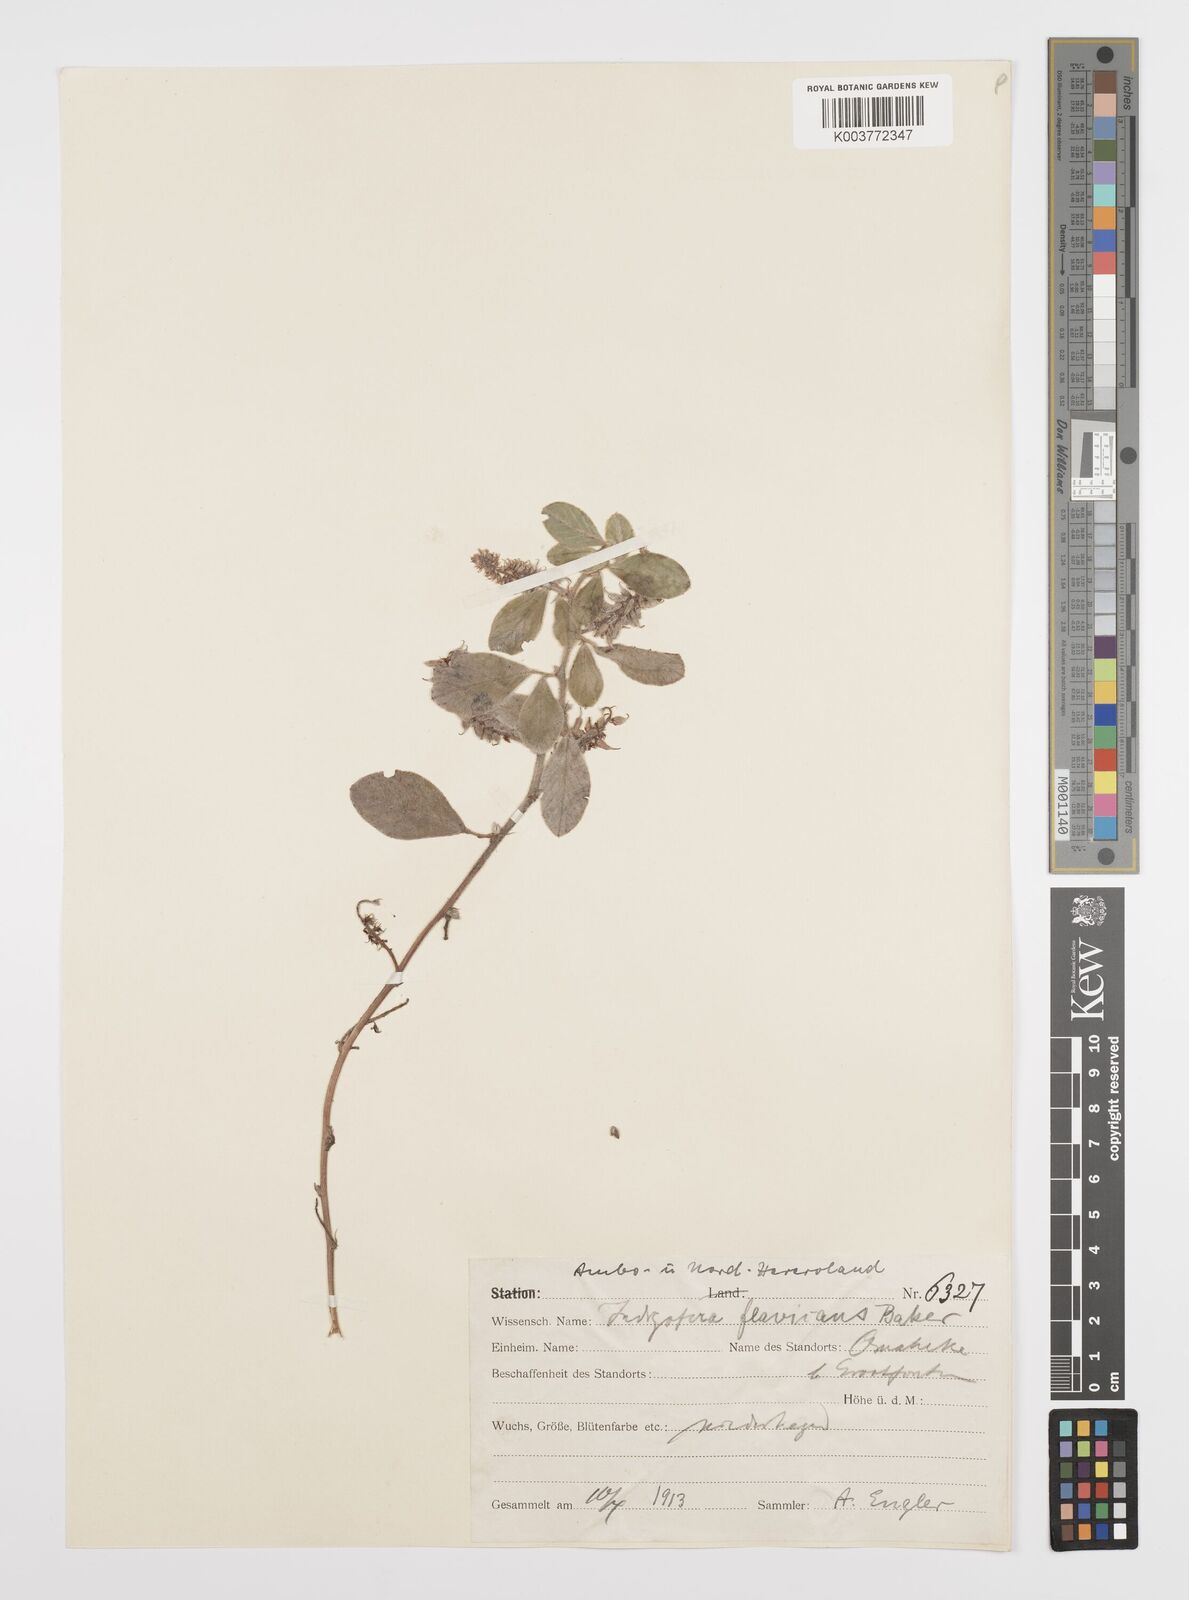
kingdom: Plantae
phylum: Tracheophyta
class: Magnoliopsida
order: Fabales
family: Fabaceae
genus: Indigofera
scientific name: Indigofera flavicans
